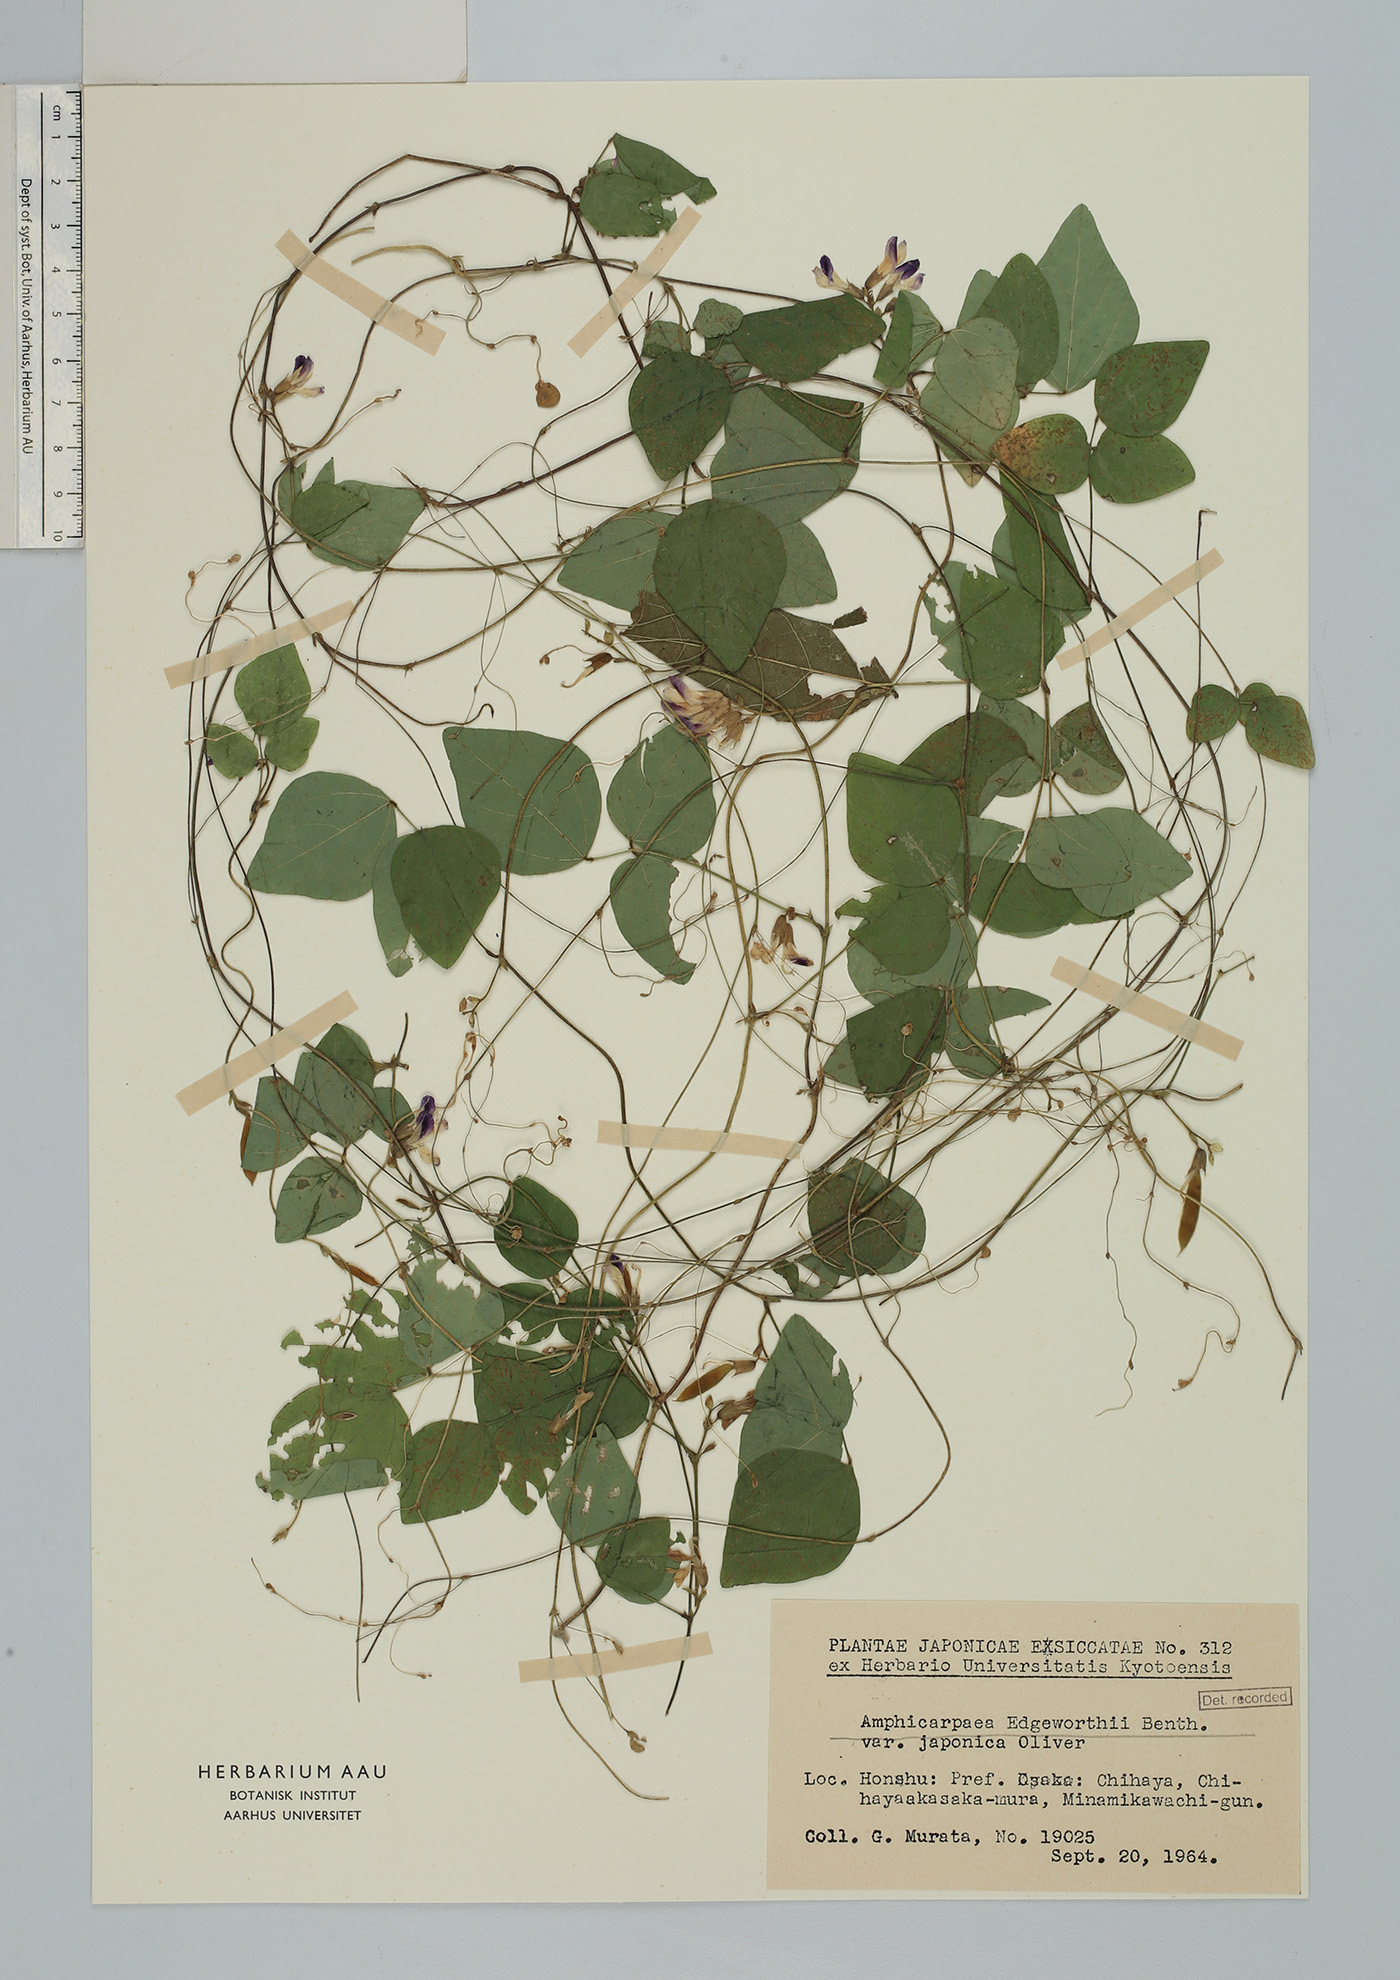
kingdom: Plantae
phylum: Tracheophyta
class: Magnoliopsida
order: Fabales
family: Fabaceae
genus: Amphicarpaea
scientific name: Amphicarpaea edgeworthii
